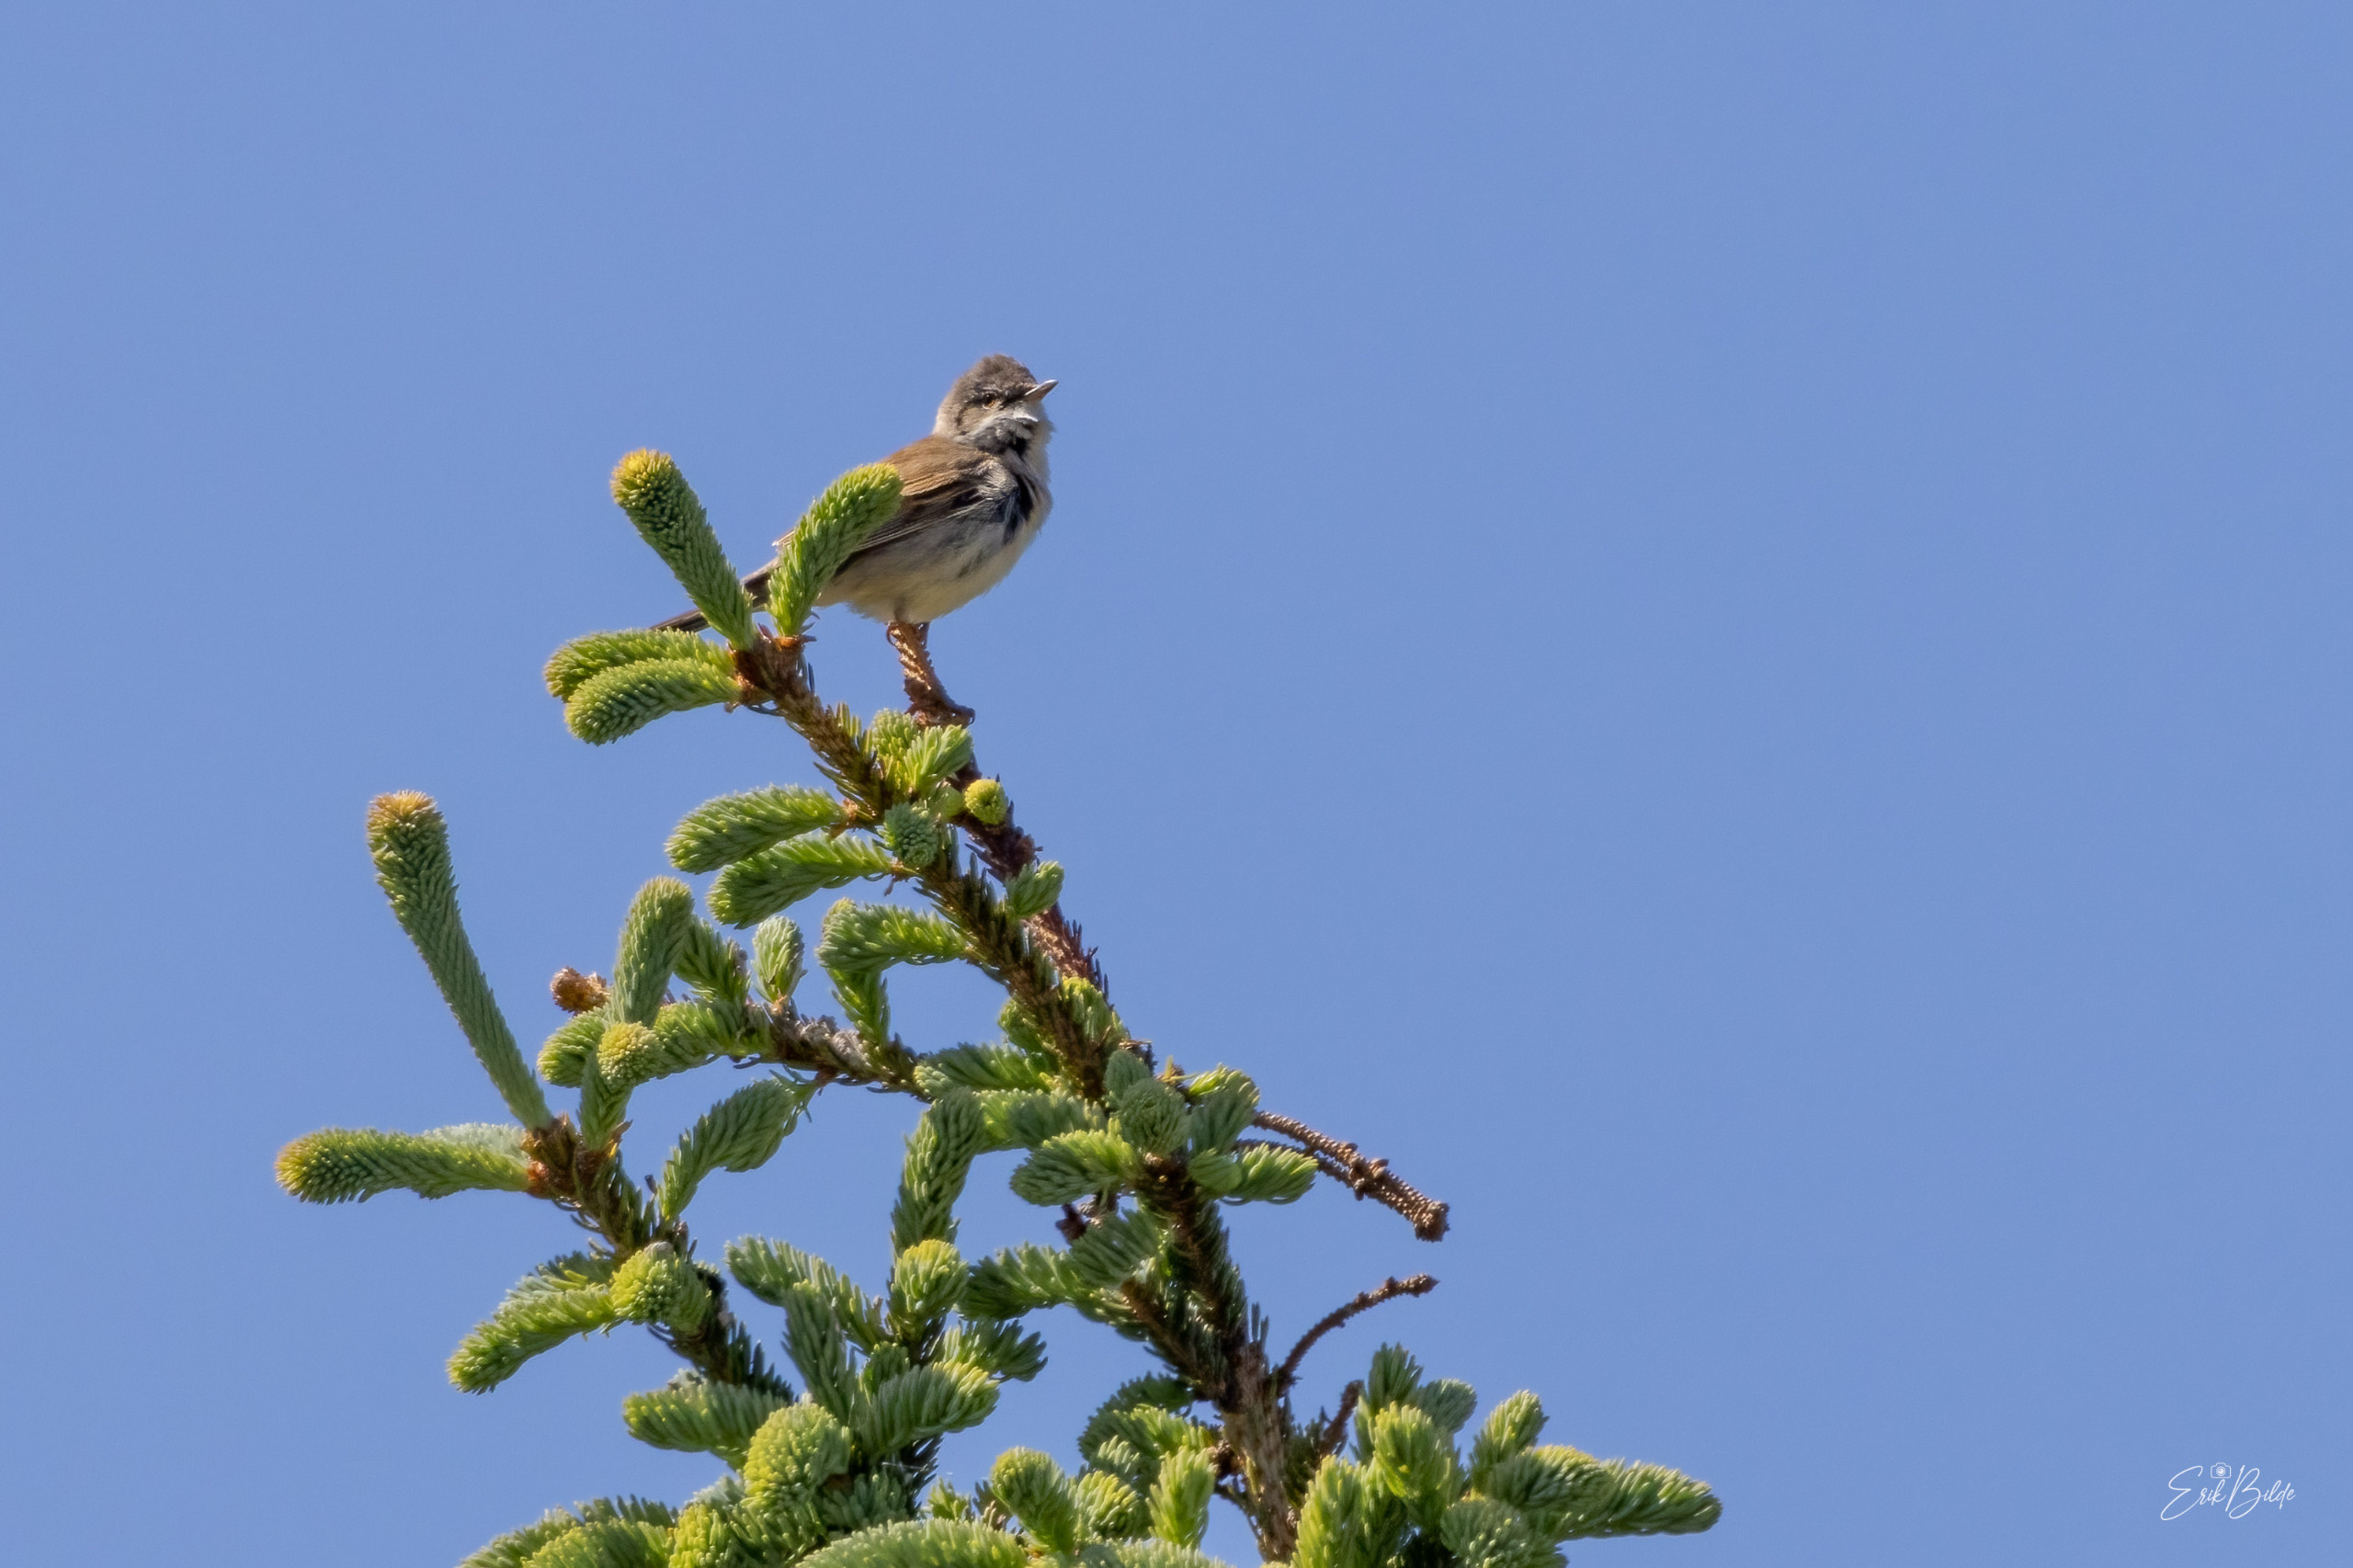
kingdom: Animalia
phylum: Chordata
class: Aves
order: Passeriformes
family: Sylviidae
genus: Sylvia
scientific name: Sylvia communis
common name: Tornsanger
